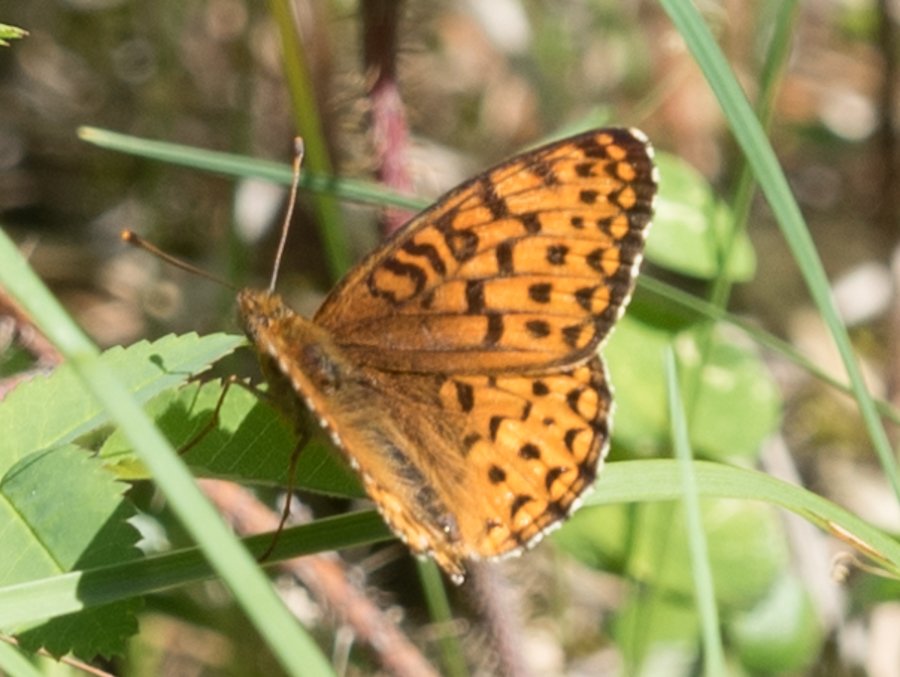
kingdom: Animalia
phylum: Arthropoda
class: Insecta
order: Lepidoptera
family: Nymphalidae
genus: Speyeria
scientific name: Speyeria atlantis
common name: Atlantis Fritillary
